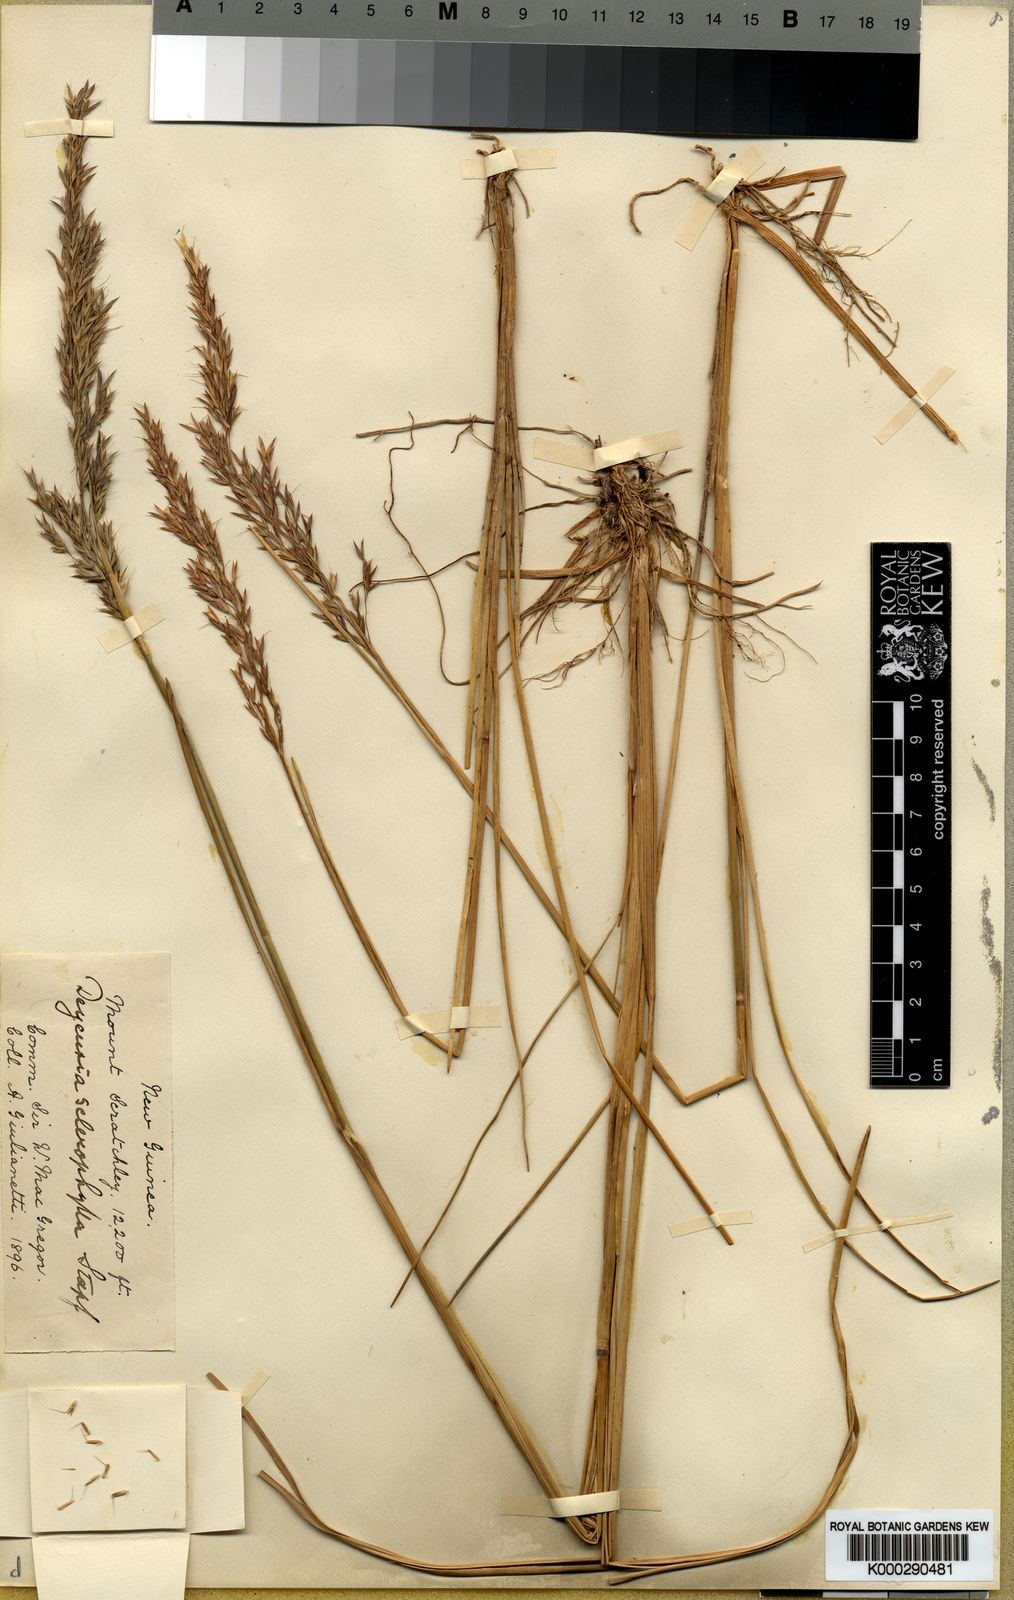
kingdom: Plantae
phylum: Tracheophyta
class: Liliopsida
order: Poales
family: Poaceae
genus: Calamagrostis
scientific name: Calamagrostis sclerophylla
